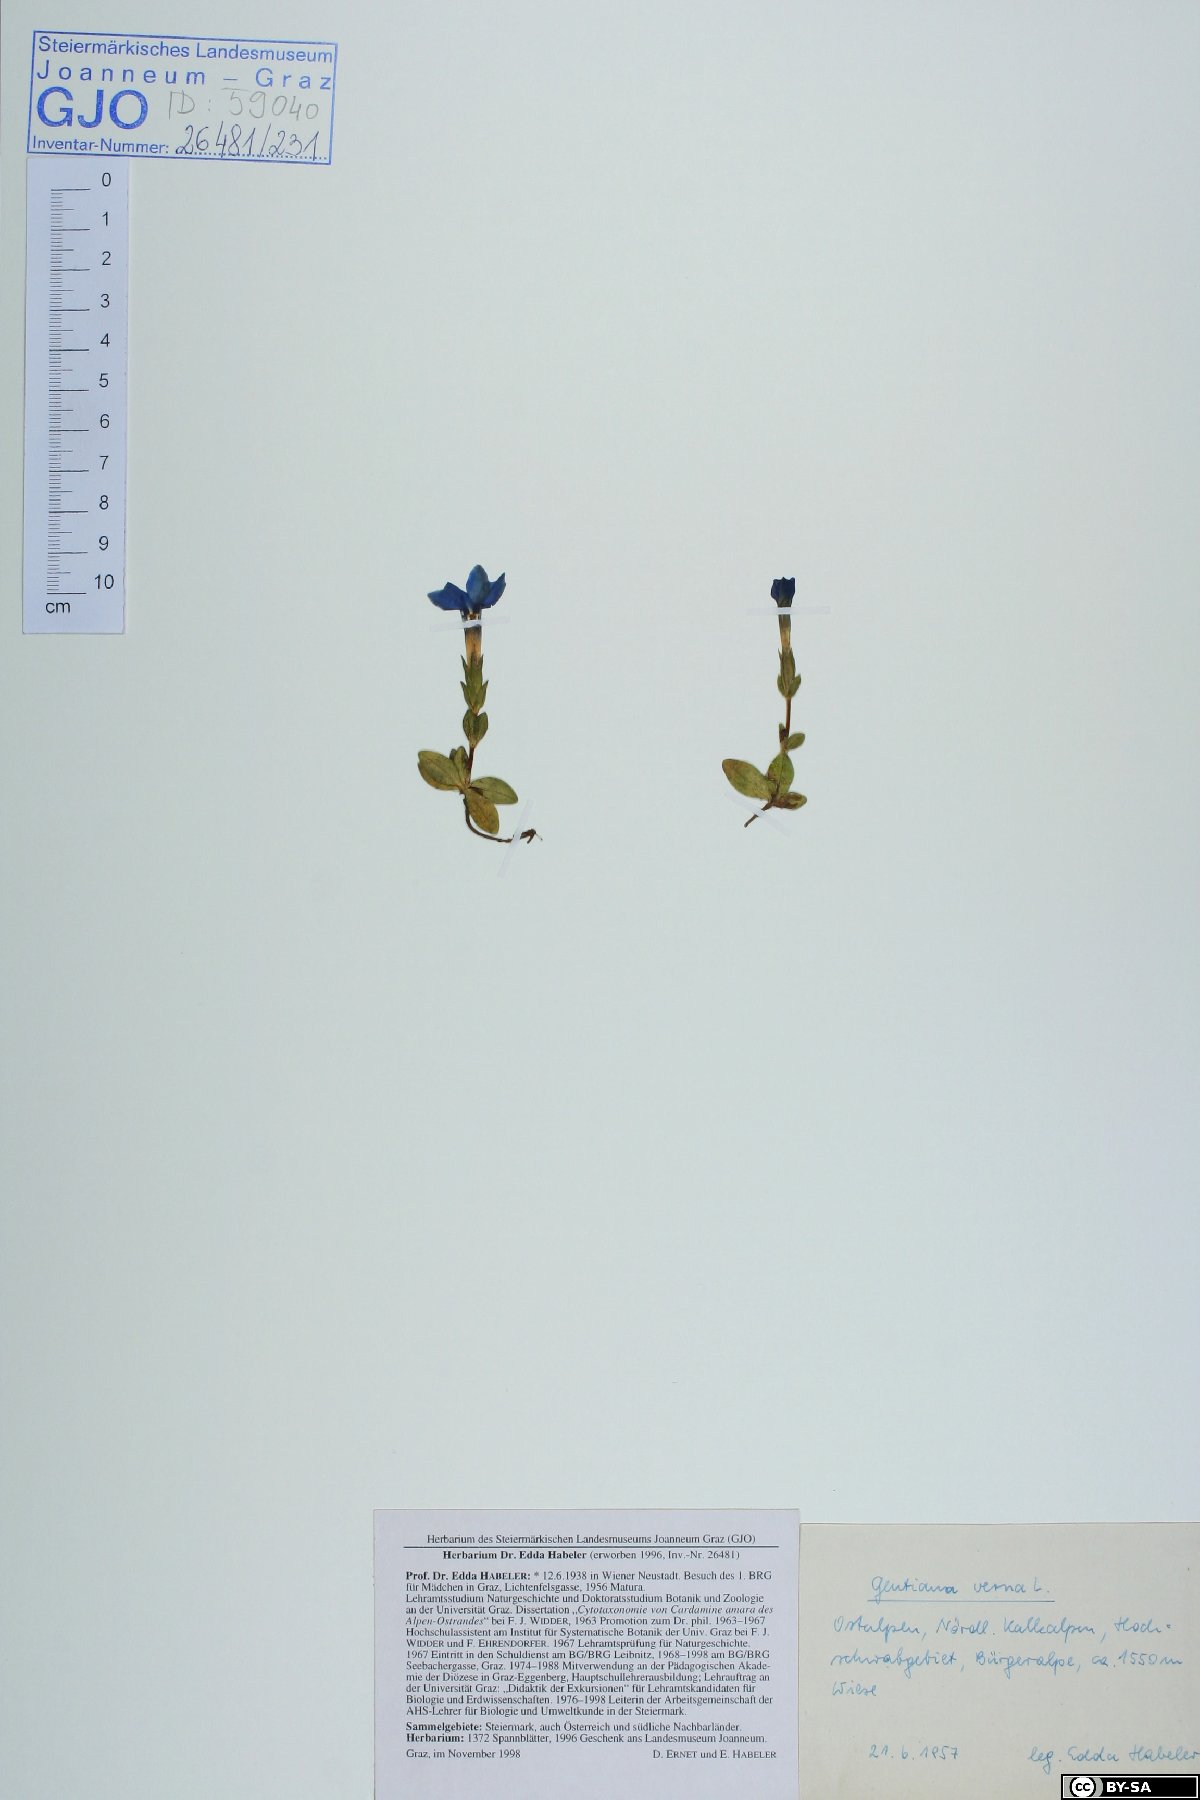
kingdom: Plantae
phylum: Tracheophyta
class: Magnoliopsida
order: Gentianales
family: Gentianaceae
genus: Gentiana
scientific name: Gentiana verna
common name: Spring gentian
